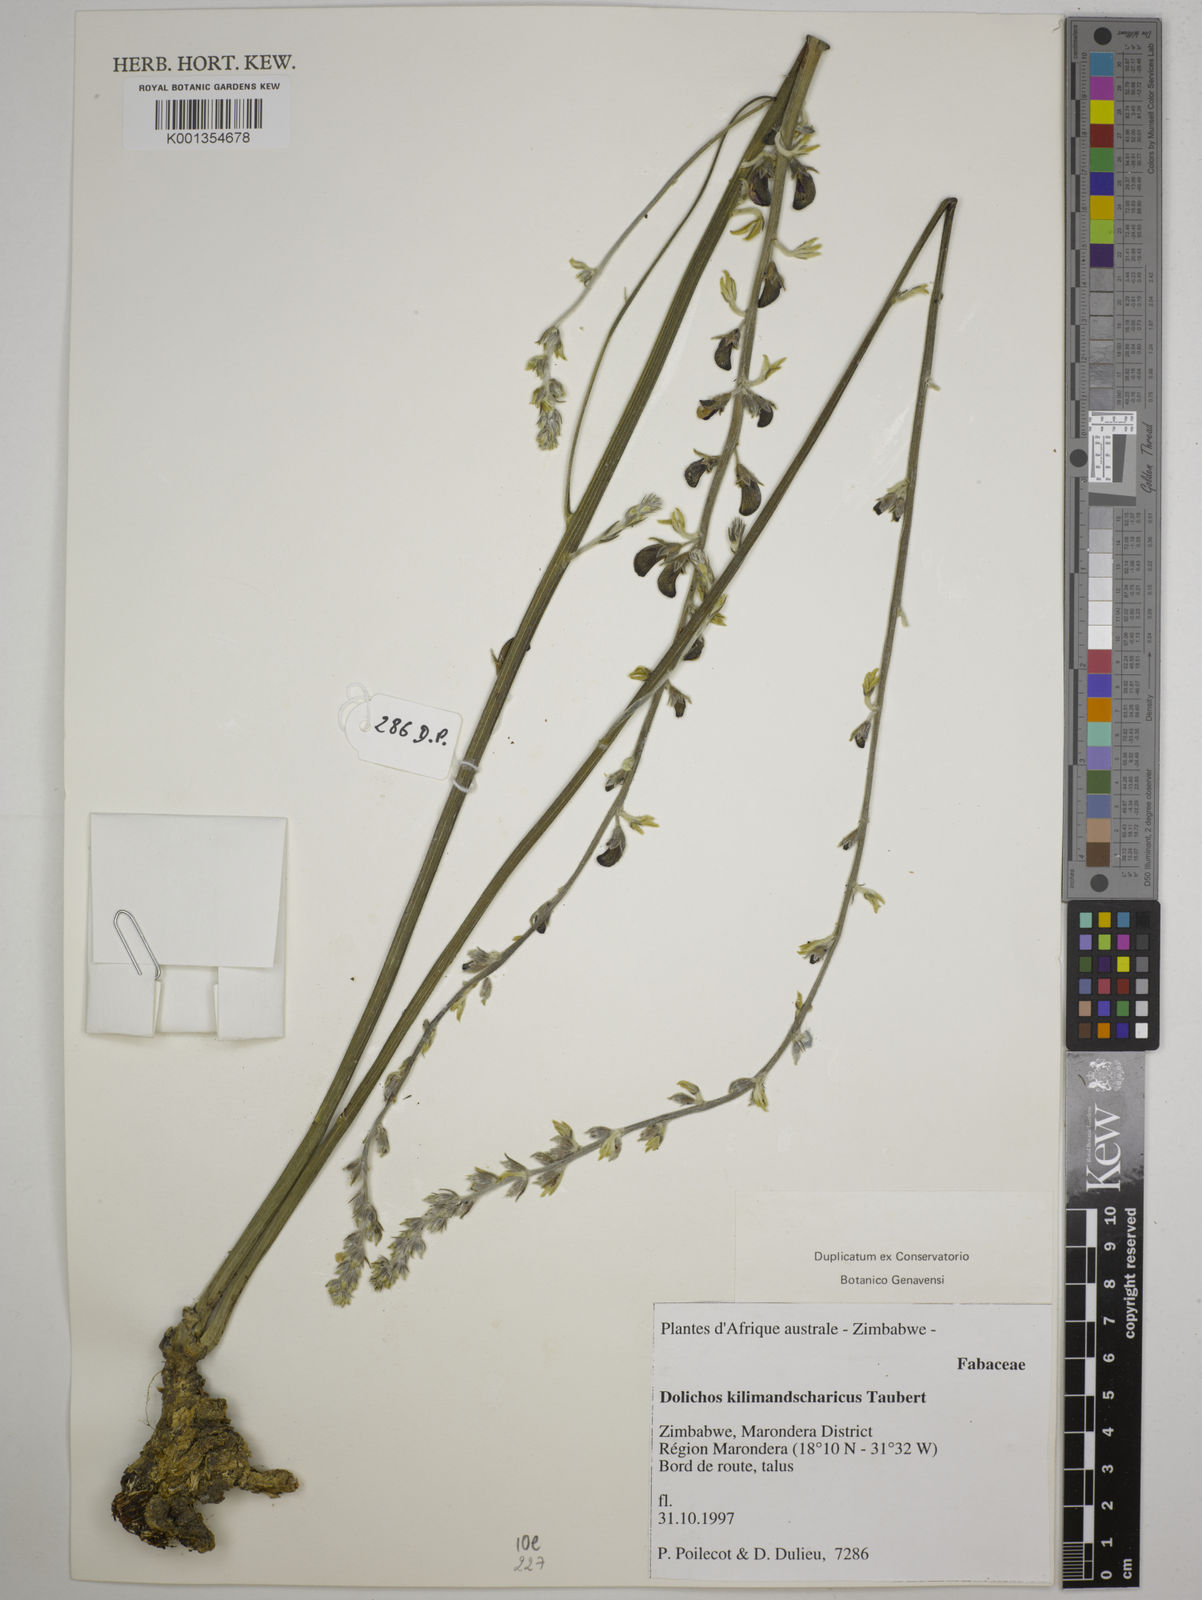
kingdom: Plantae
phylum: Tracheophyta
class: Magnoliopsida
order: Fabales
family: Fabaceae
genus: Dolichos
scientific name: Dolichos kilimandscharicus
